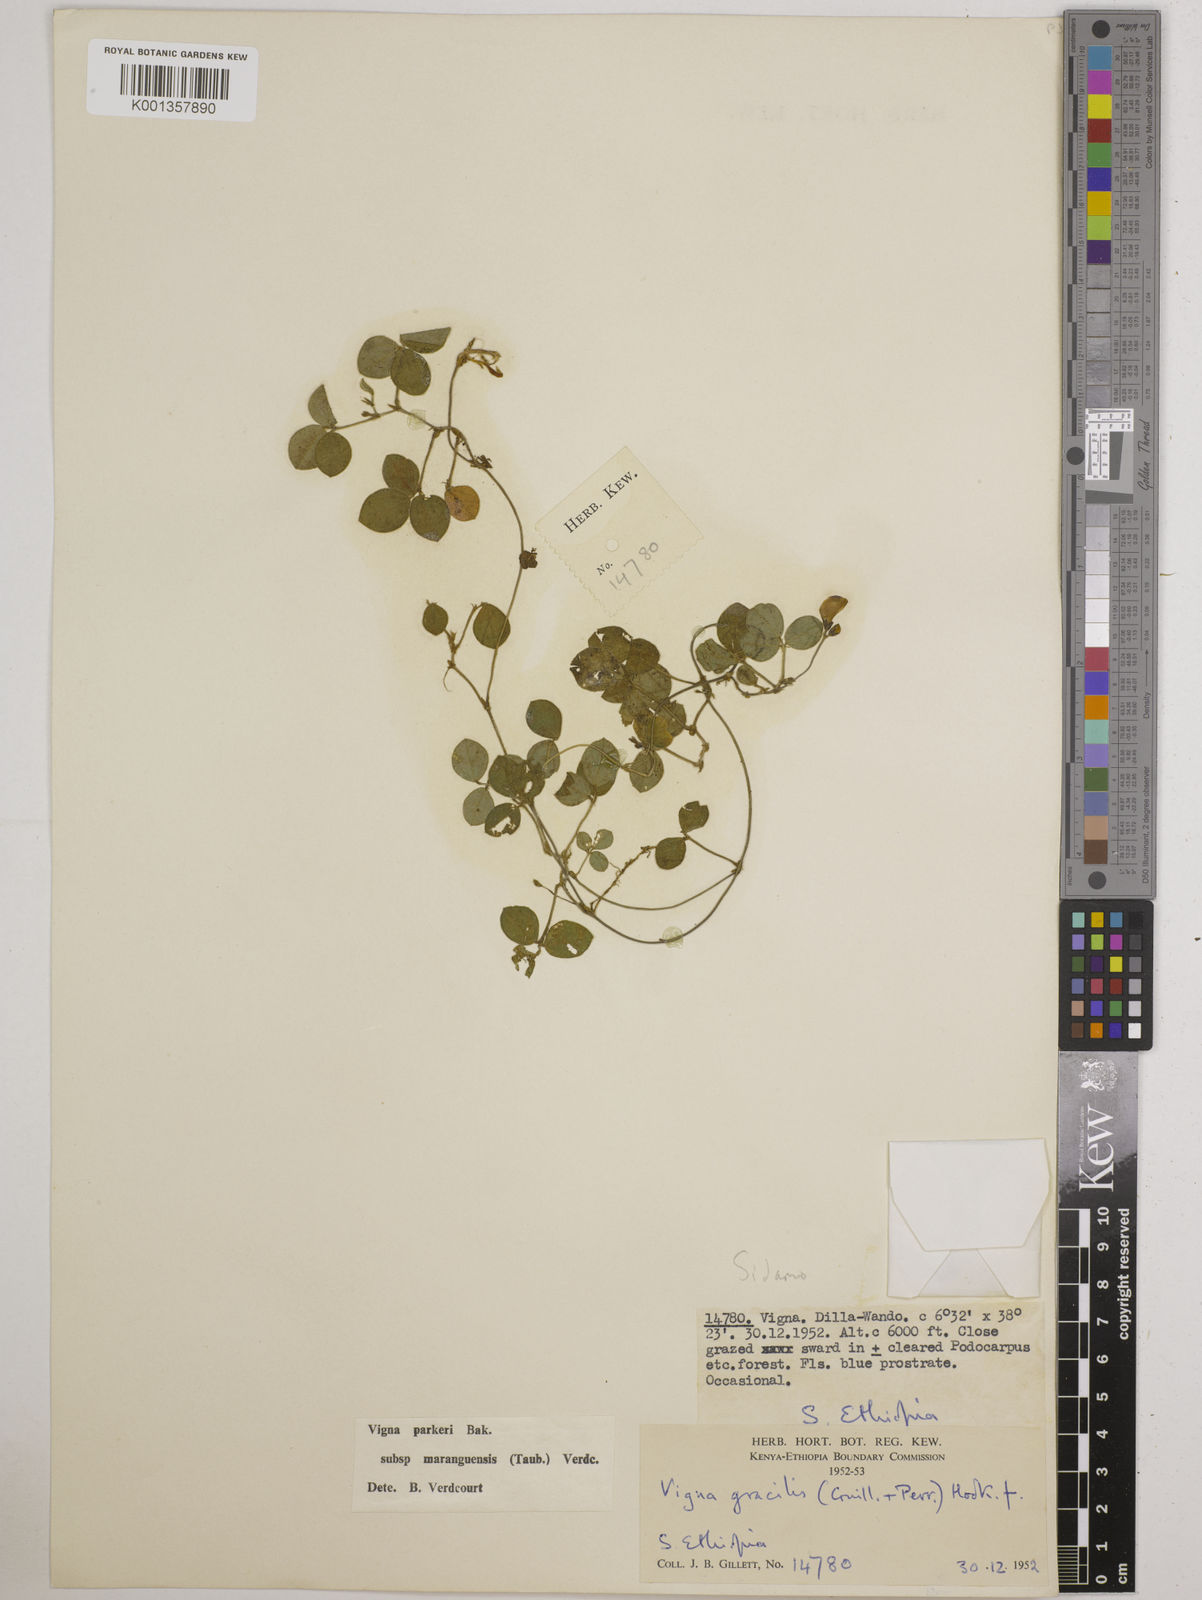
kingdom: Plantae
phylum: Tracheophyta
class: Magnoliopsida
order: Fabales
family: Fabaceae
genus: Vigna
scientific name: Vigna
